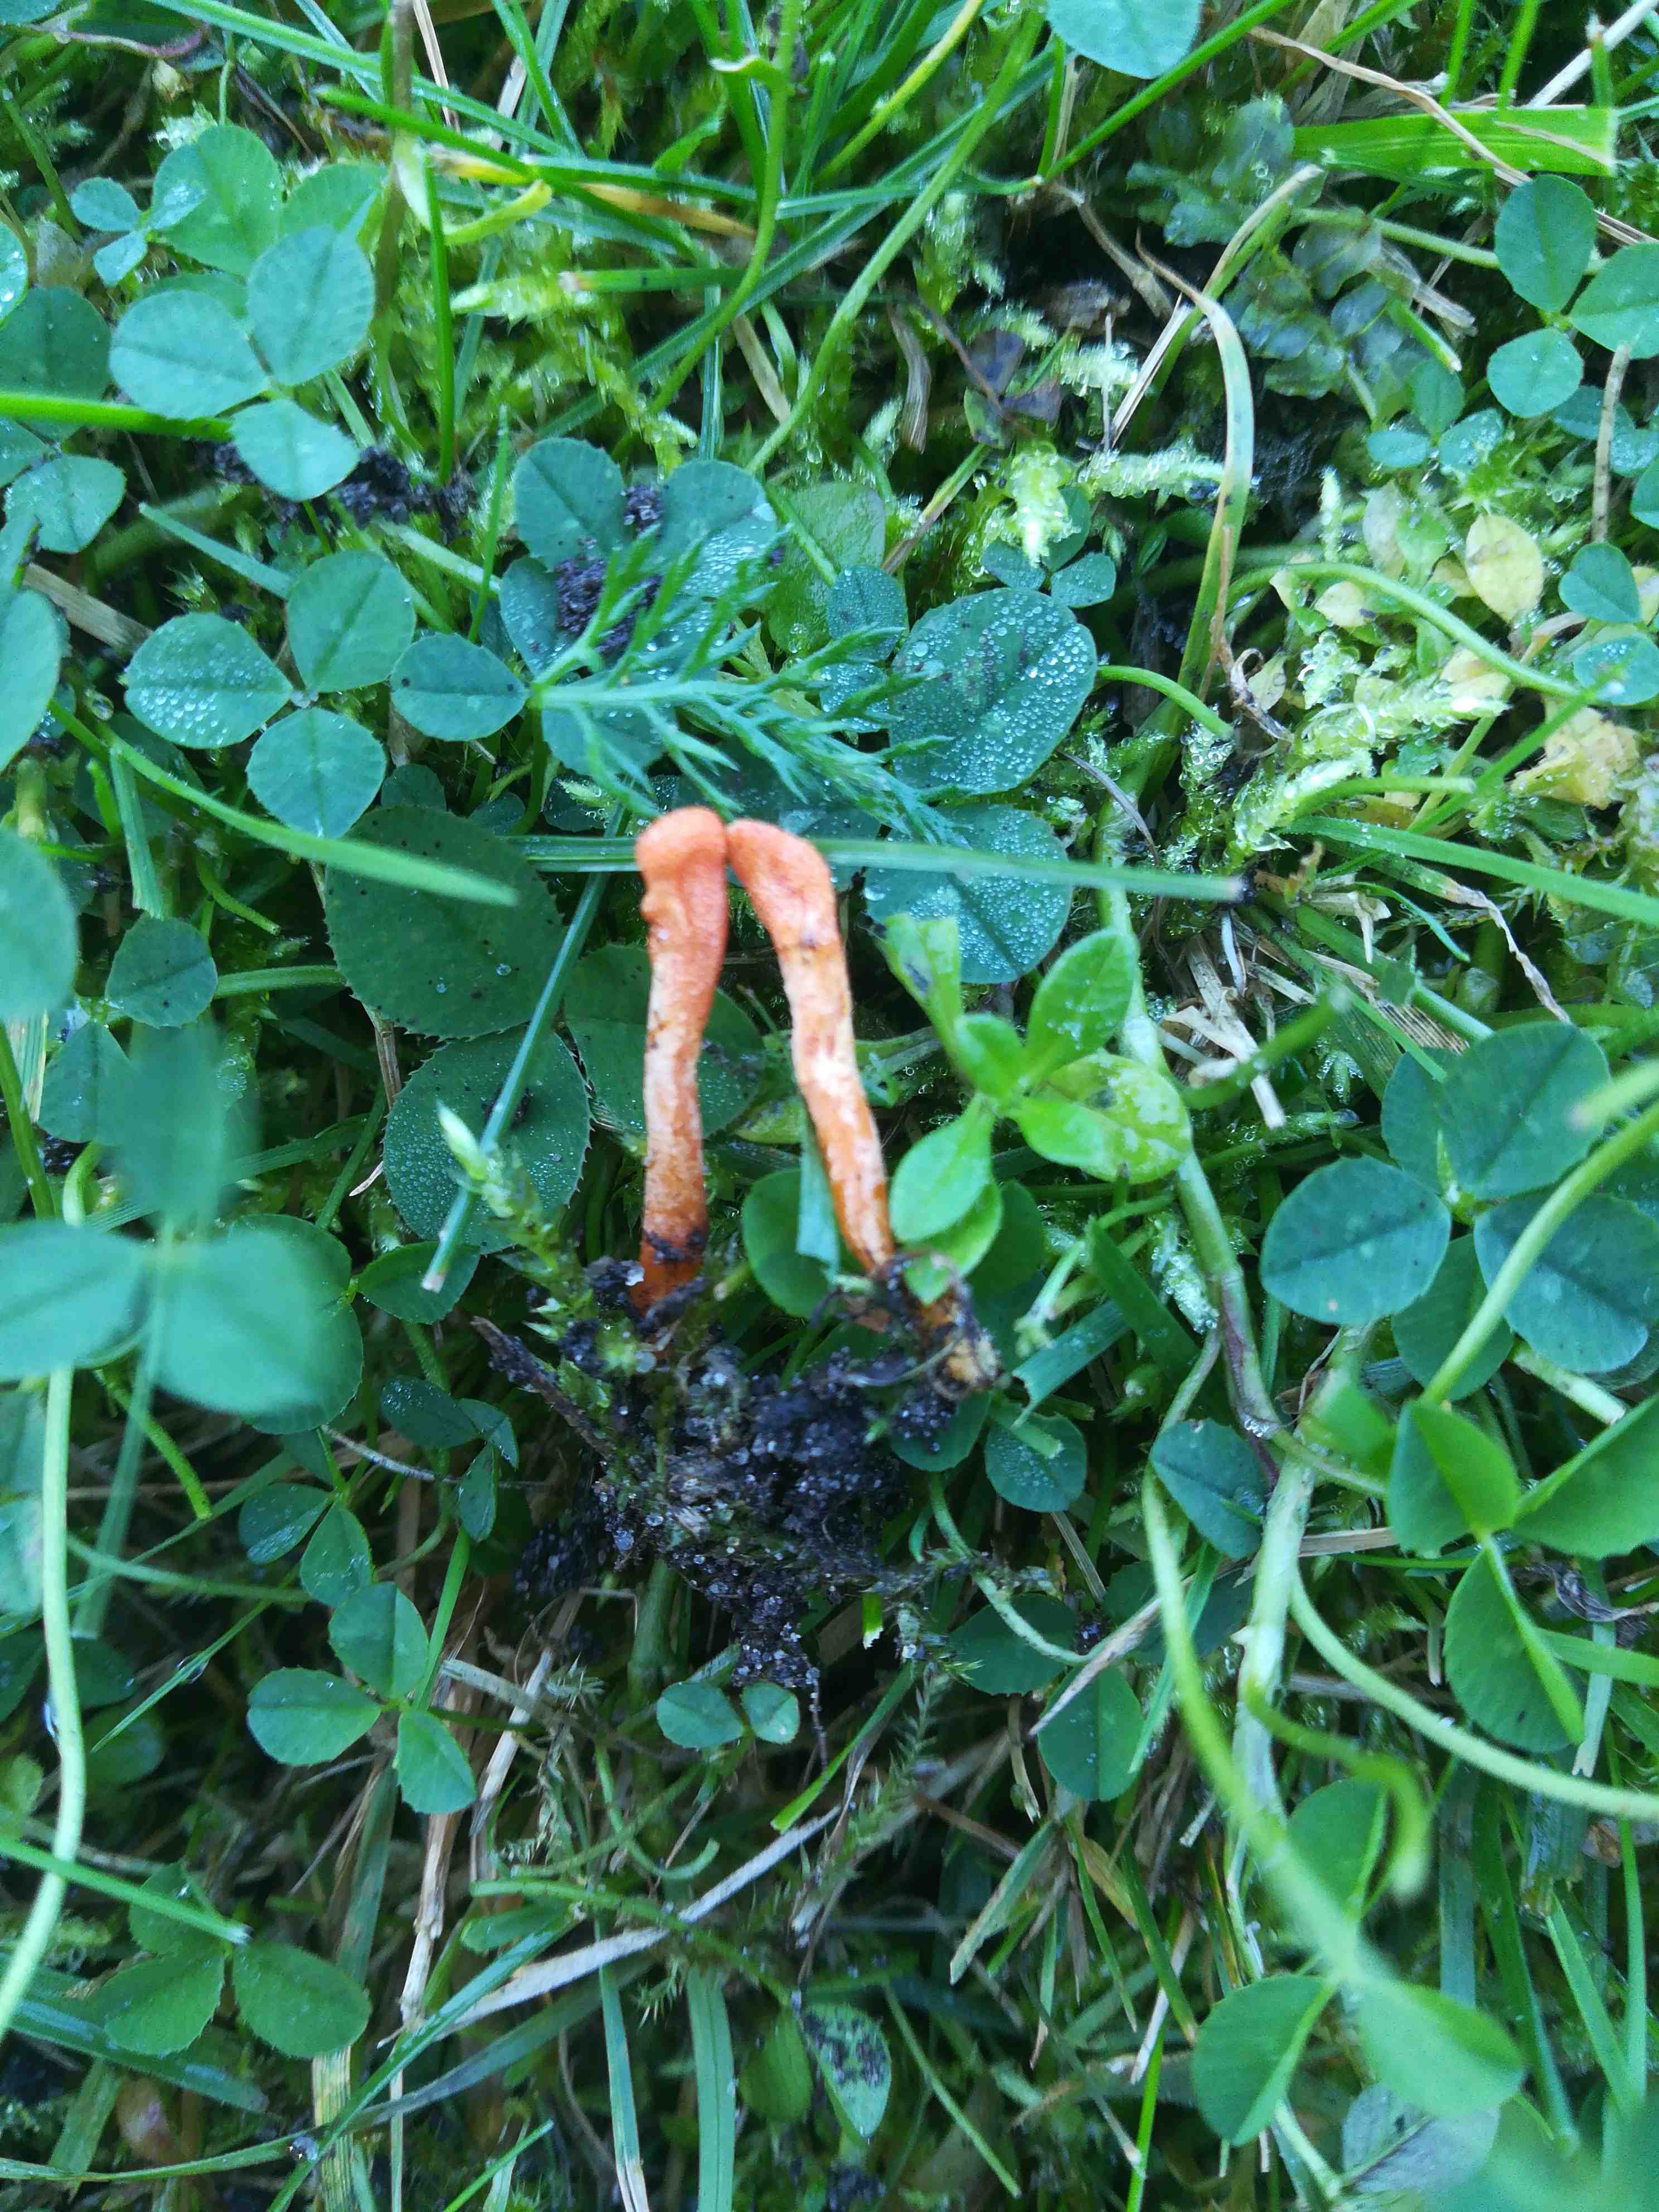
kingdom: Fungi
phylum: Ascomycota
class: Sordariomycetes
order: Hypocreales
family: Cordycipitaceae
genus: Cordyceps
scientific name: Cordyceps militaris
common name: puppe-snyltekølle
